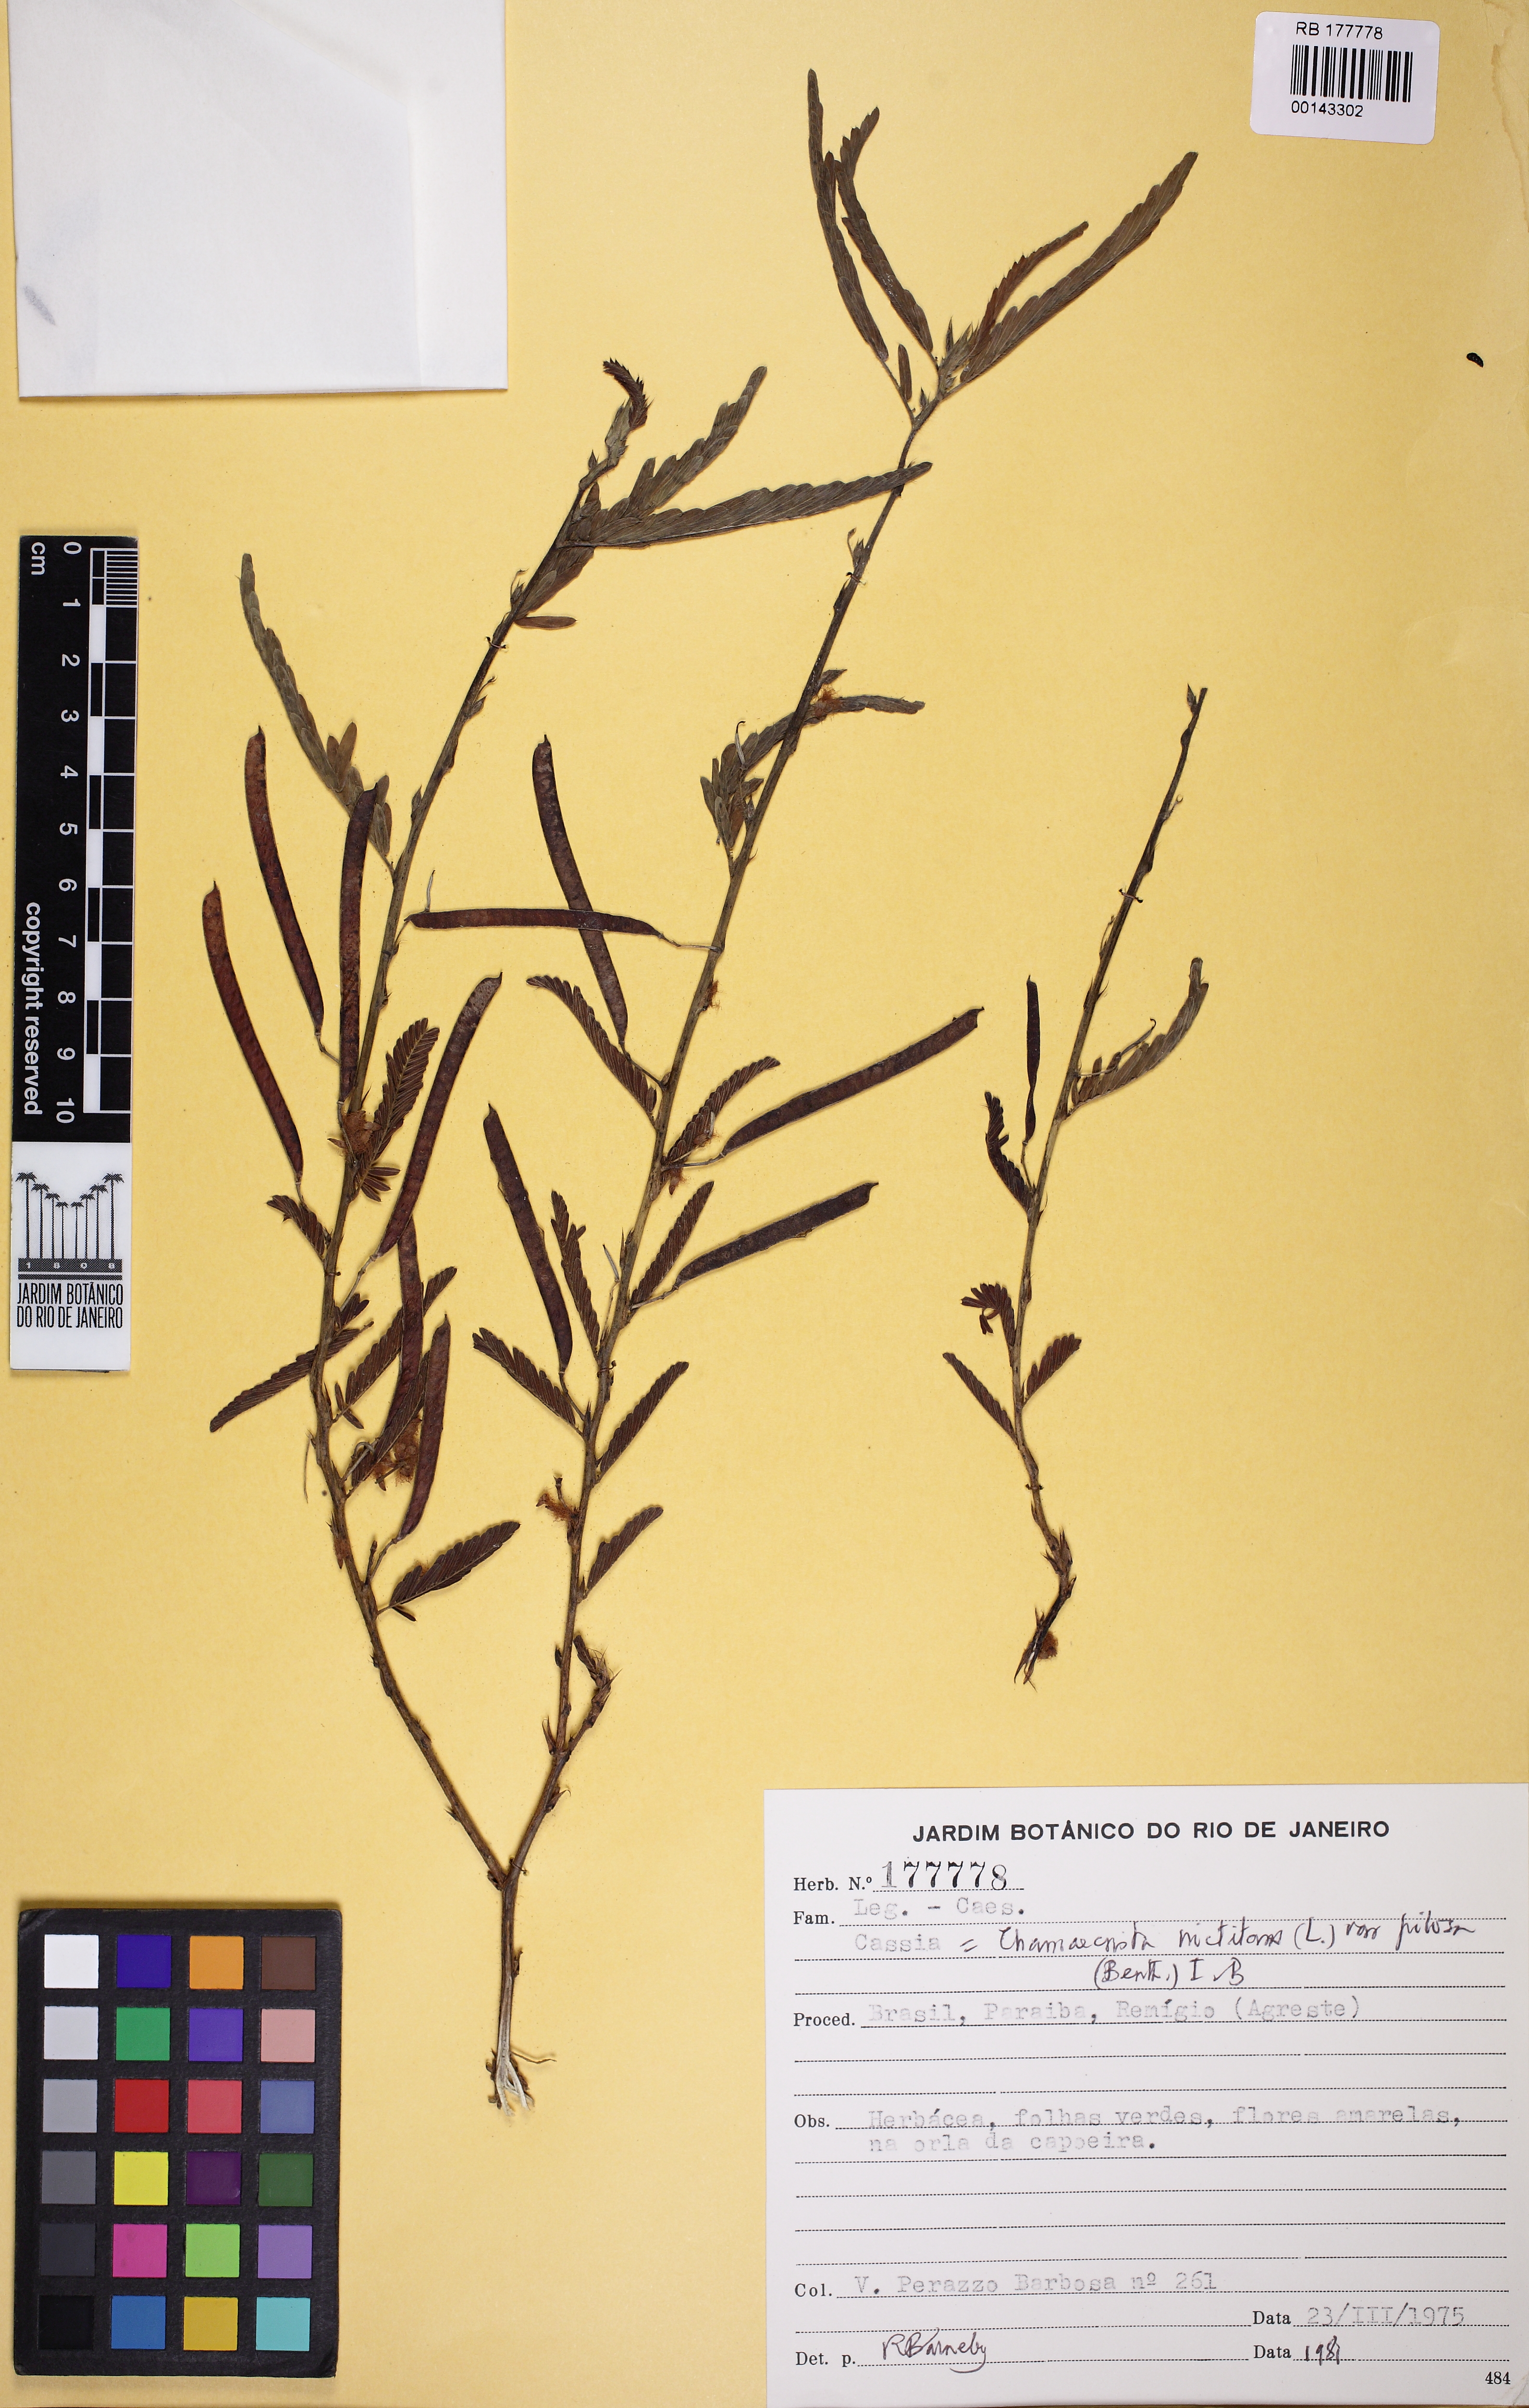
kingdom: Plantae
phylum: Tracheophyta
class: Magnoliopsida
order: Fabales
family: Fabaceae
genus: Chamaecrista
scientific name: Chamaecrista fasciculata
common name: Golden cassia
